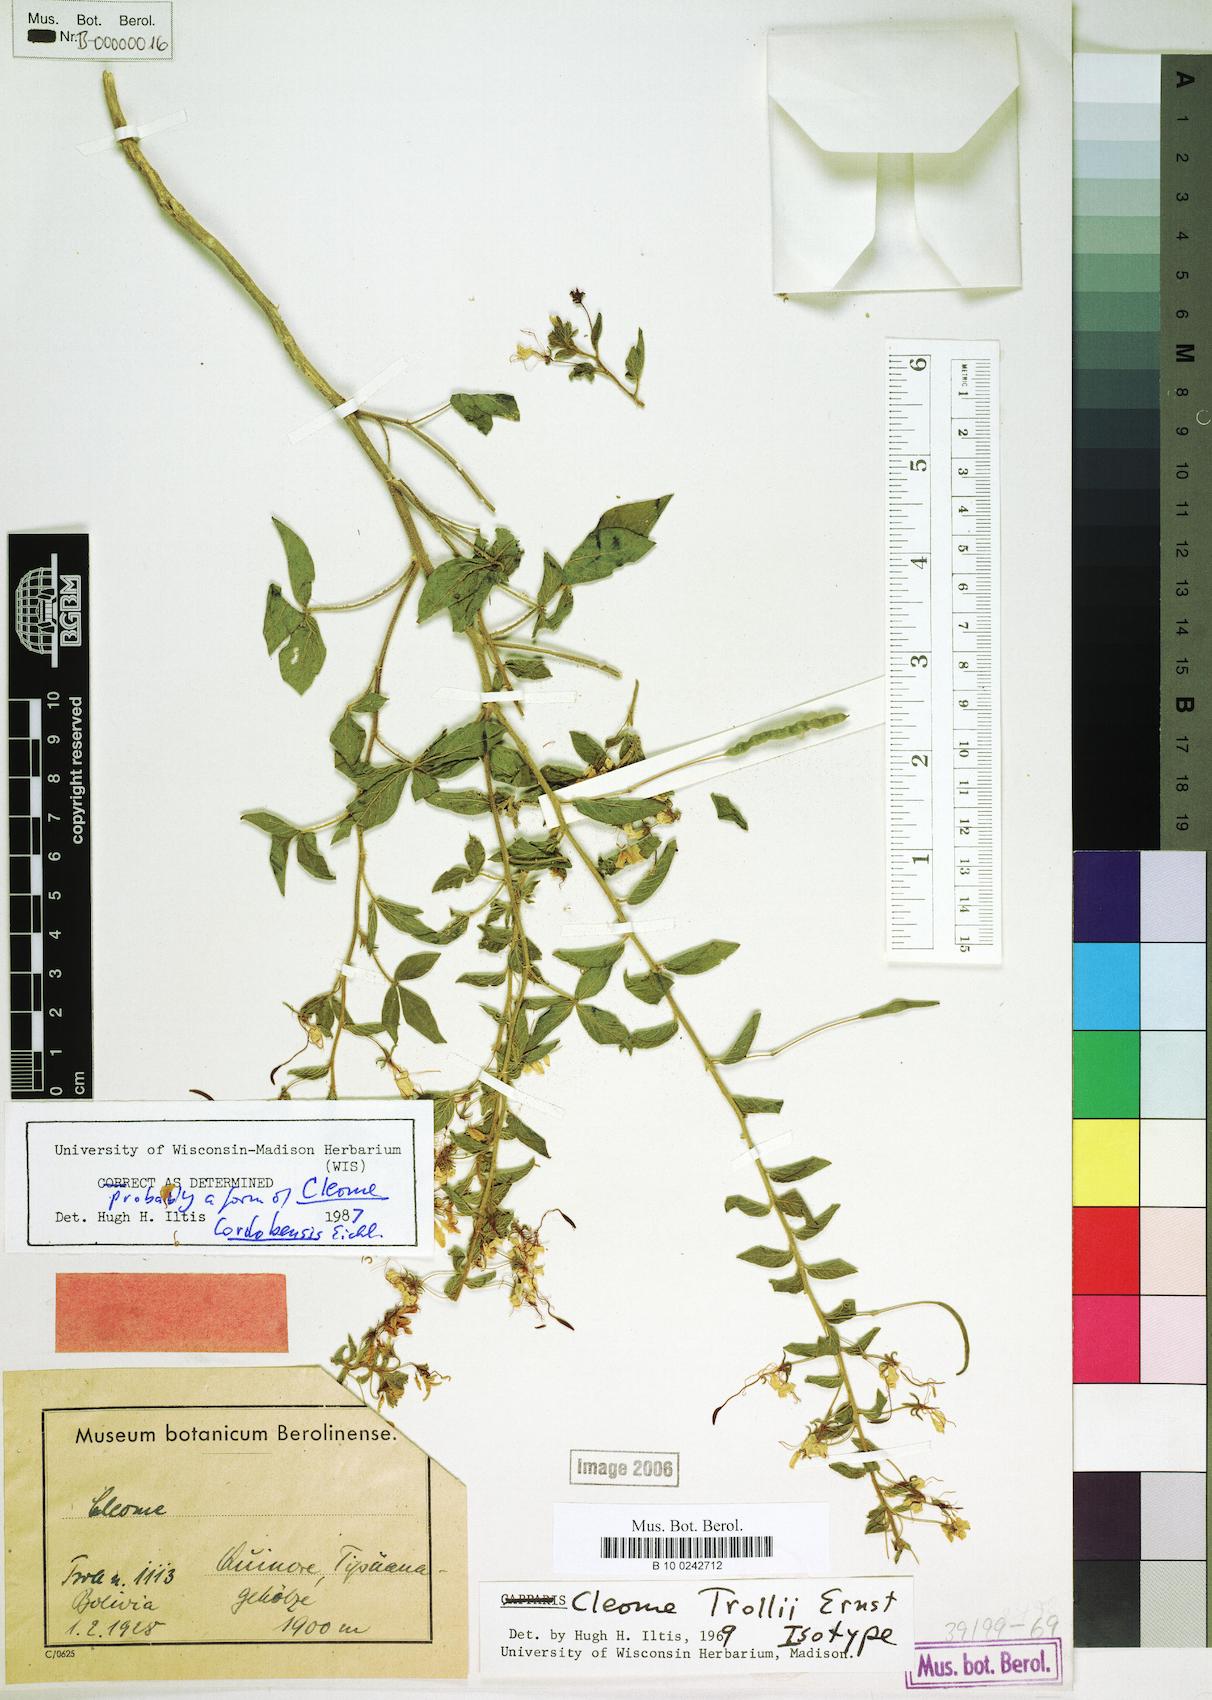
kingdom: Plantae
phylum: Tracheophyta
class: Magnoliopsida
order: Brassicales
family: Cleomaceae
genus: Tarenaya
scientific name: Tarenaya cordobensis
